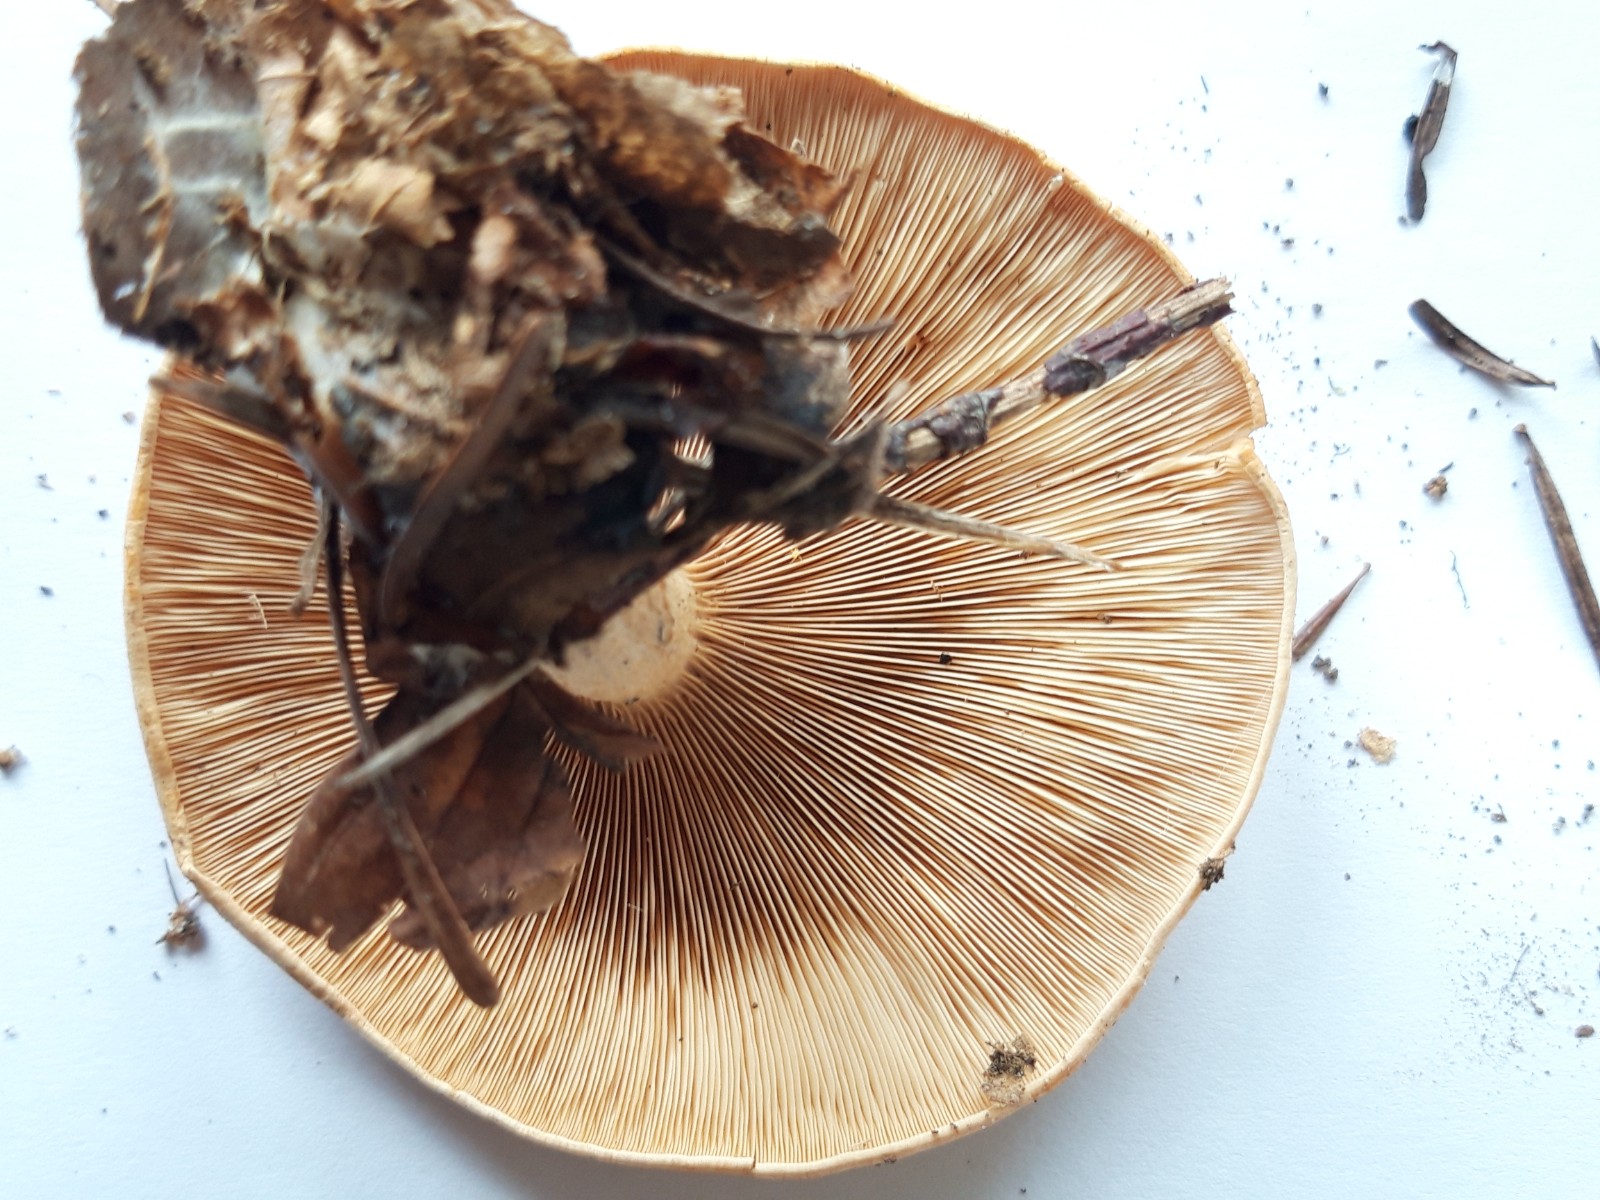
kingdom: Fungi
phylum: Basidiomycota
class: Agaricomycetes
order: Agaricales
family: Tricholomataceae
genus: Paralepista
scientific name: Paralepista flaccida
